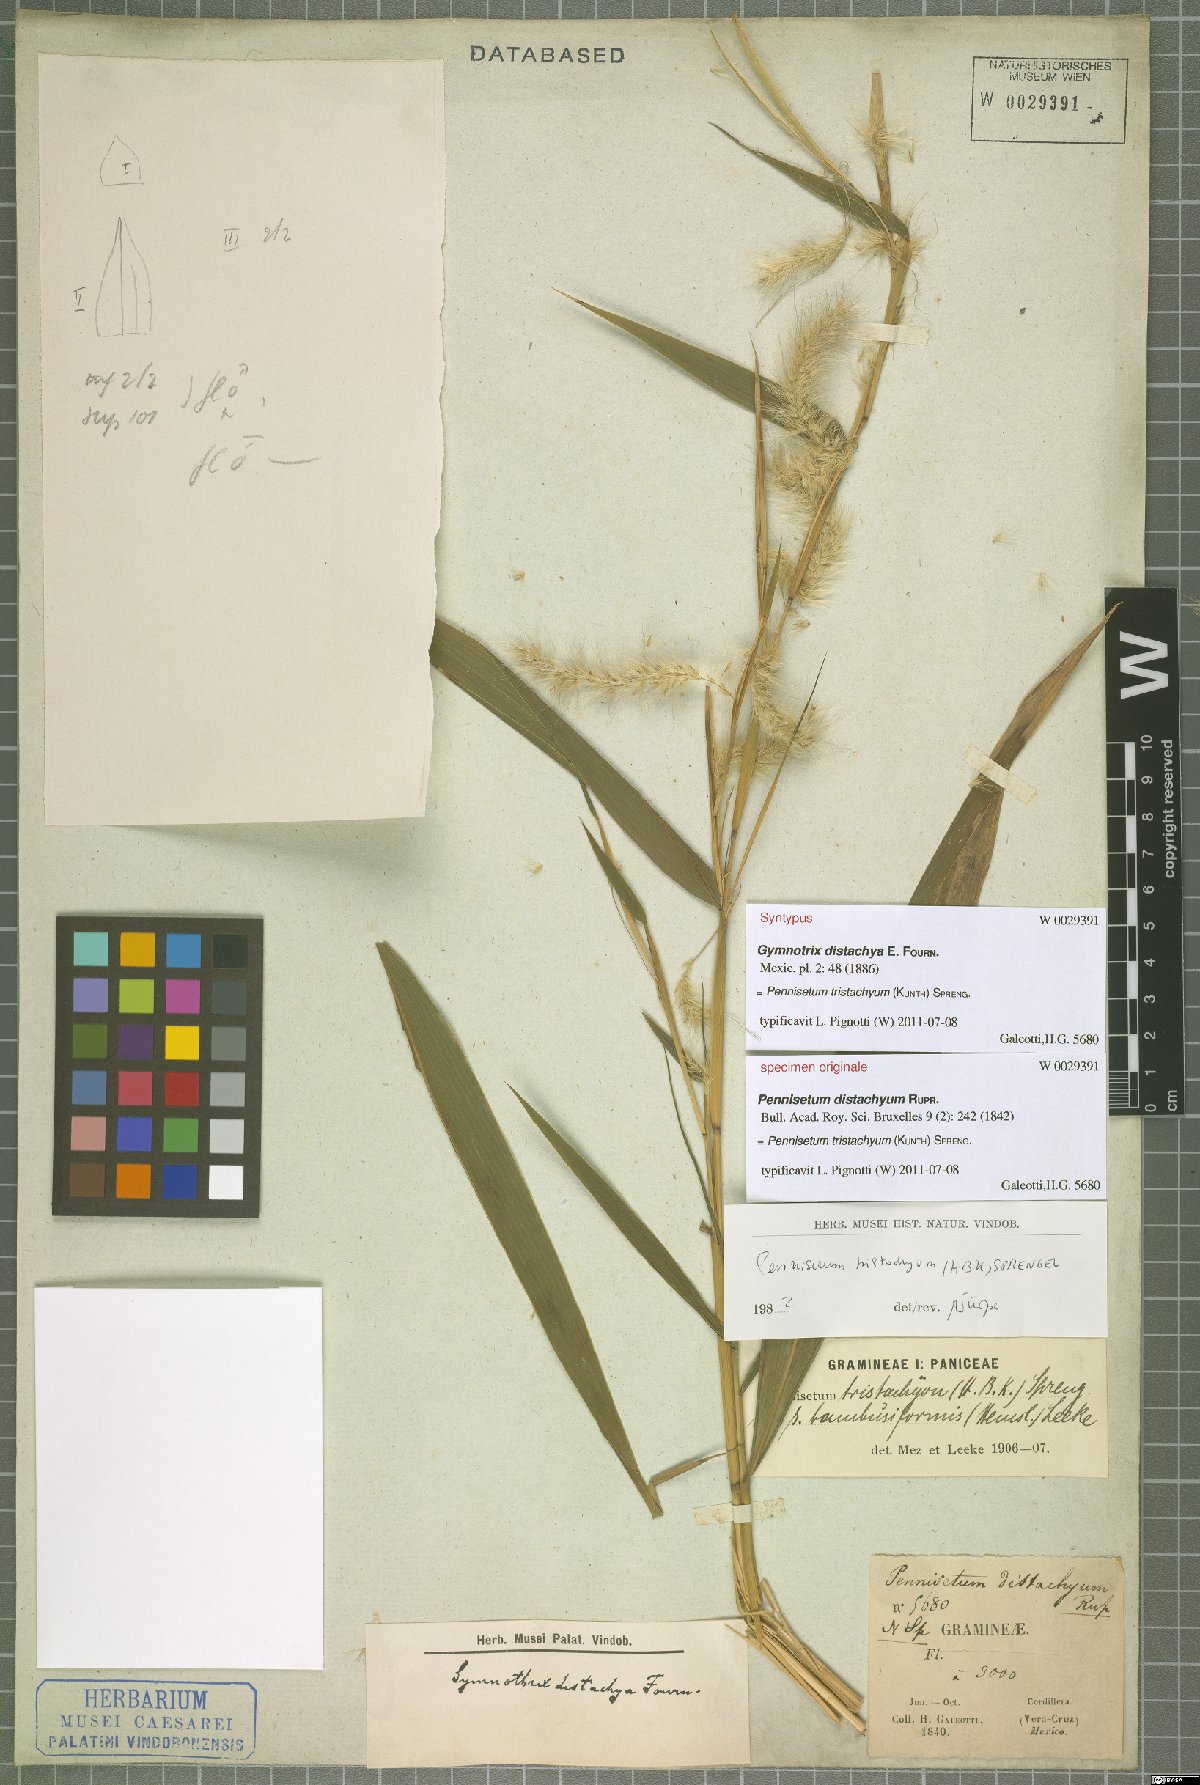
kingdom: Plantae
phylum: Tracheophyta
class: Liliopsida
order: Poales
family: Poaceae
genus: Cenchrus
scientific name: Cenchrus tristachyus
